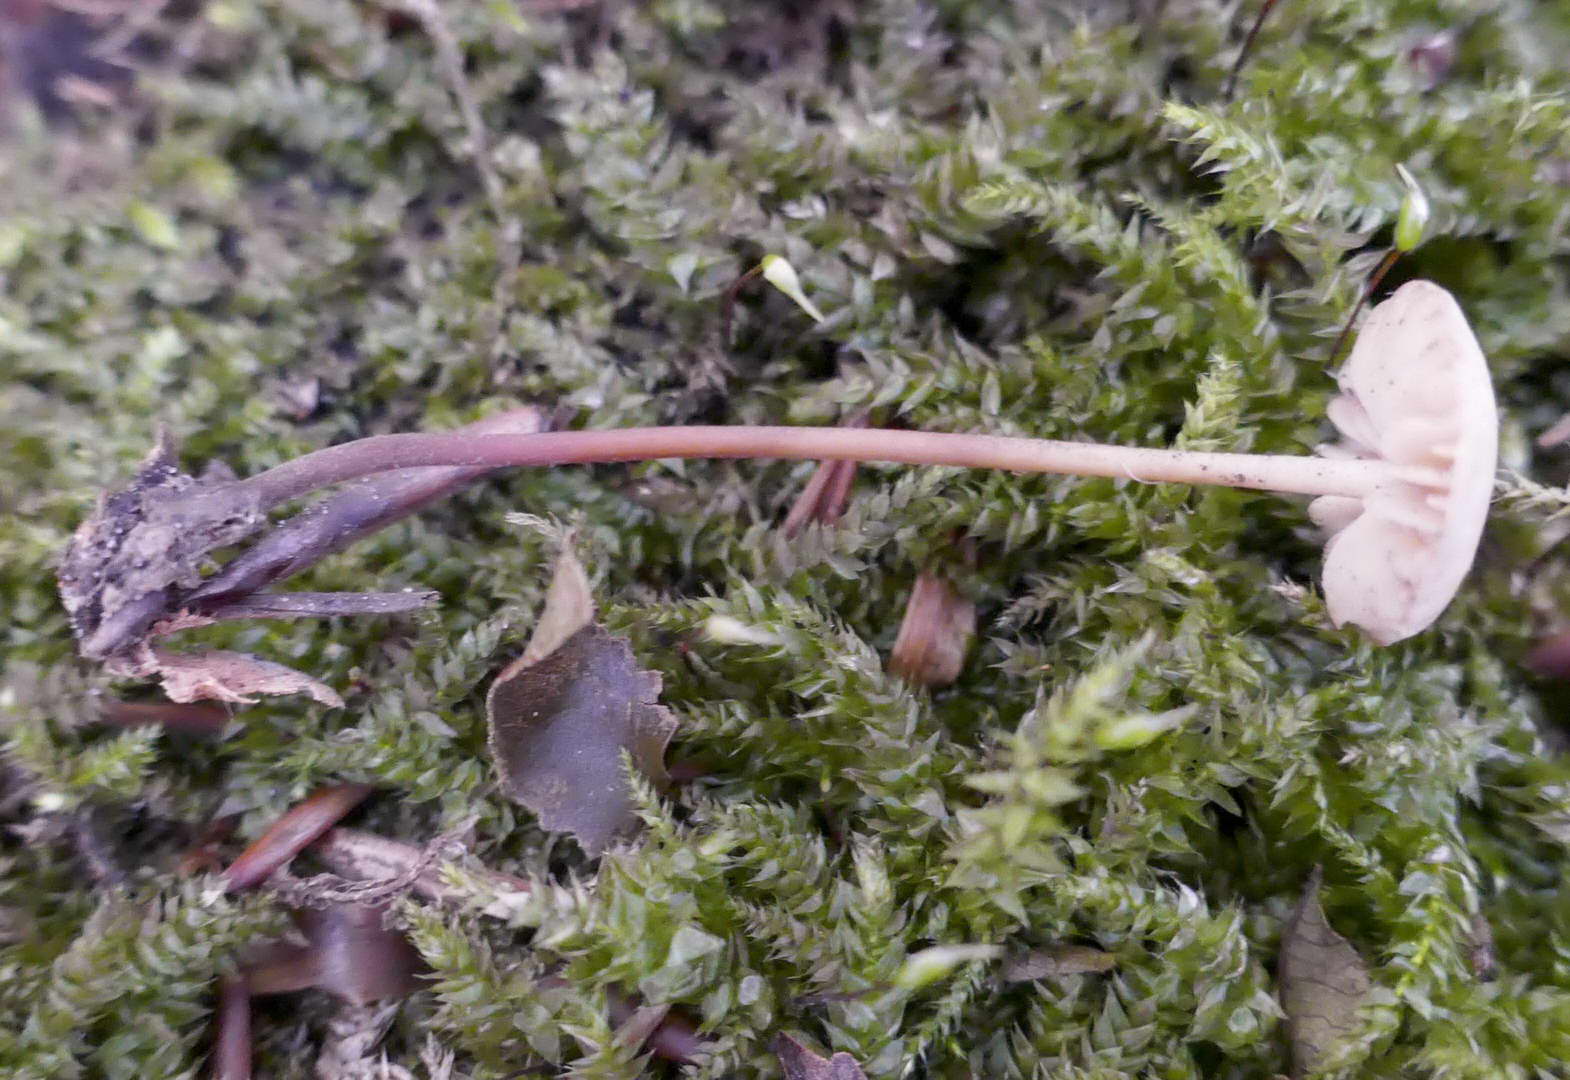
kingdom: Fungi
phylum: Basidiomycota
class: Agaricomycetes
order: Agaricales
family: Marasmiaceae
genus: Marasmius
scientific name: Marasmius torquescens
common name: filtfodet bruskhat
